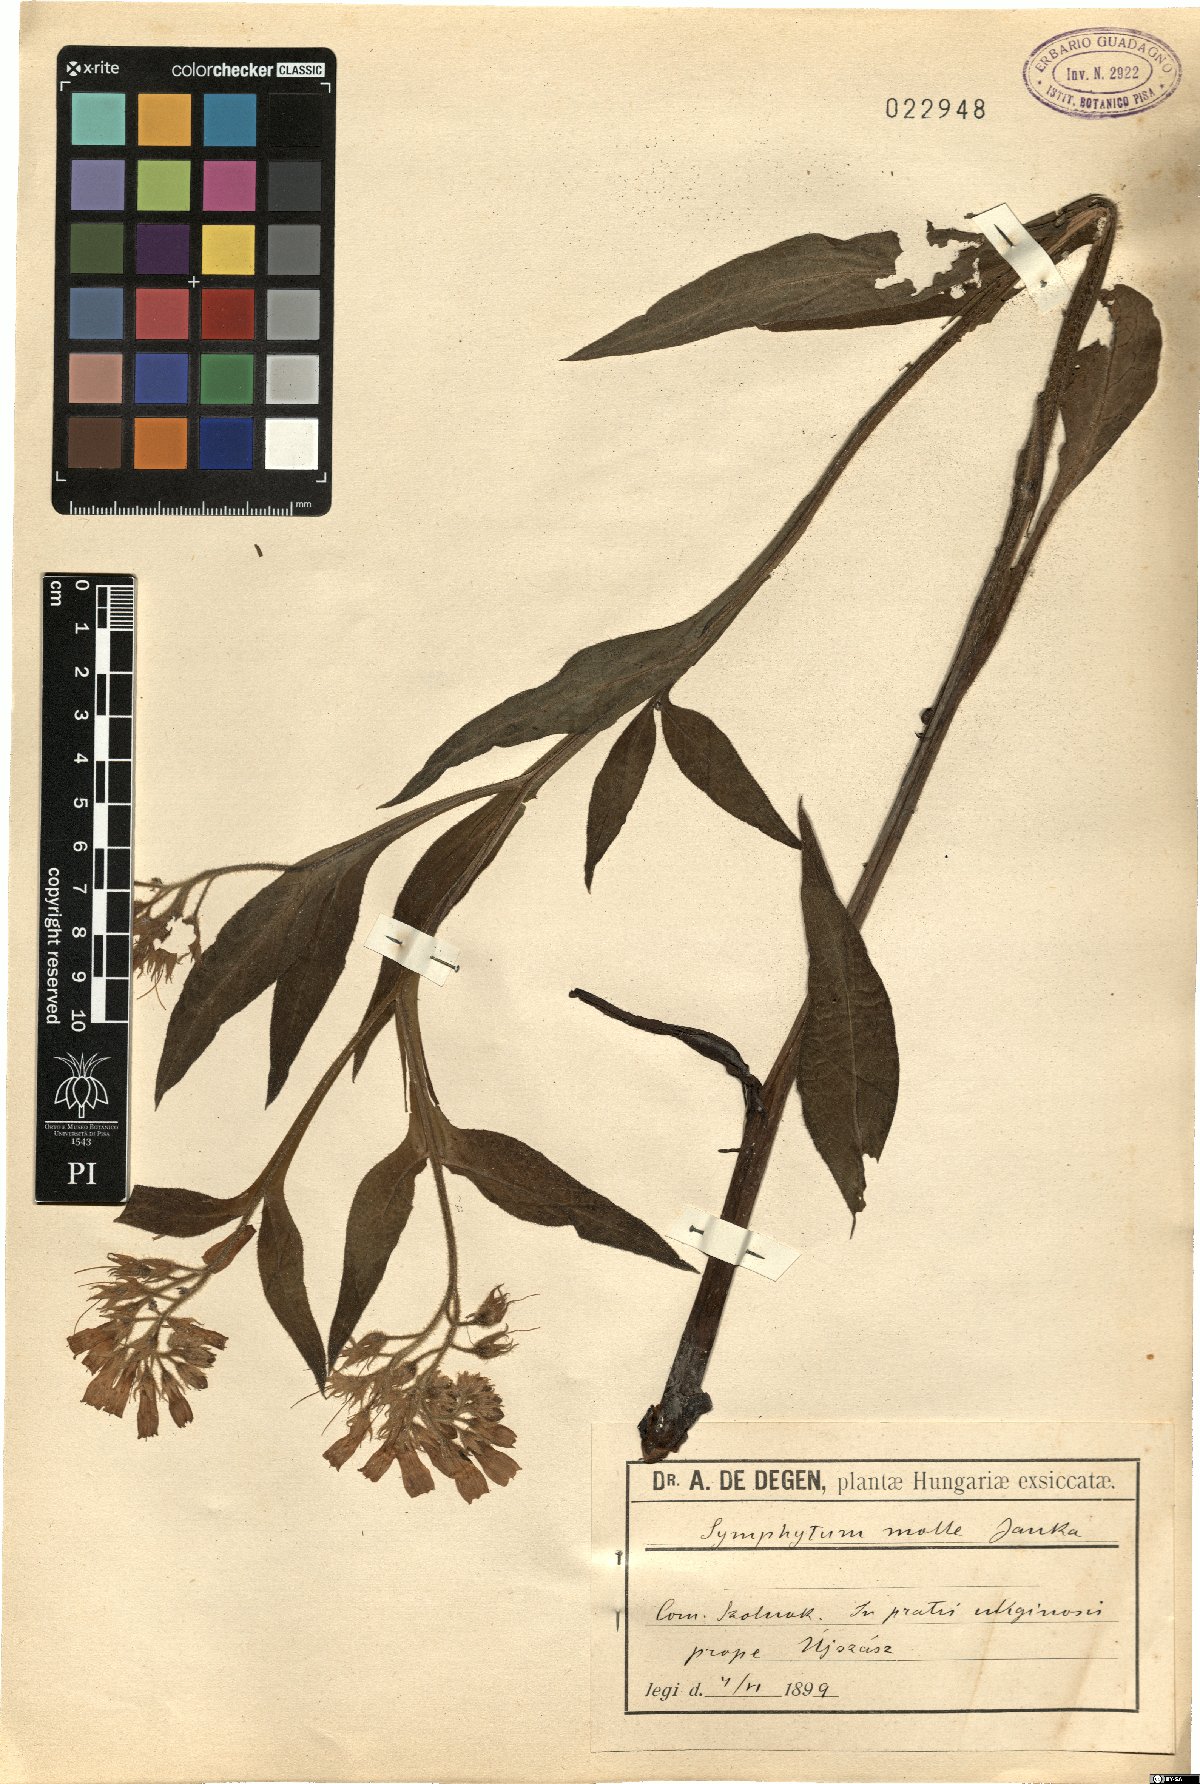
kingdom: Plantae
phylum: Tracheophyta
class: Magnoliopsida
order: Boraginales
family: Boraginaceae
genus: Symphytum
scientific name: Symphytum officinale
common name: Common comfrey
